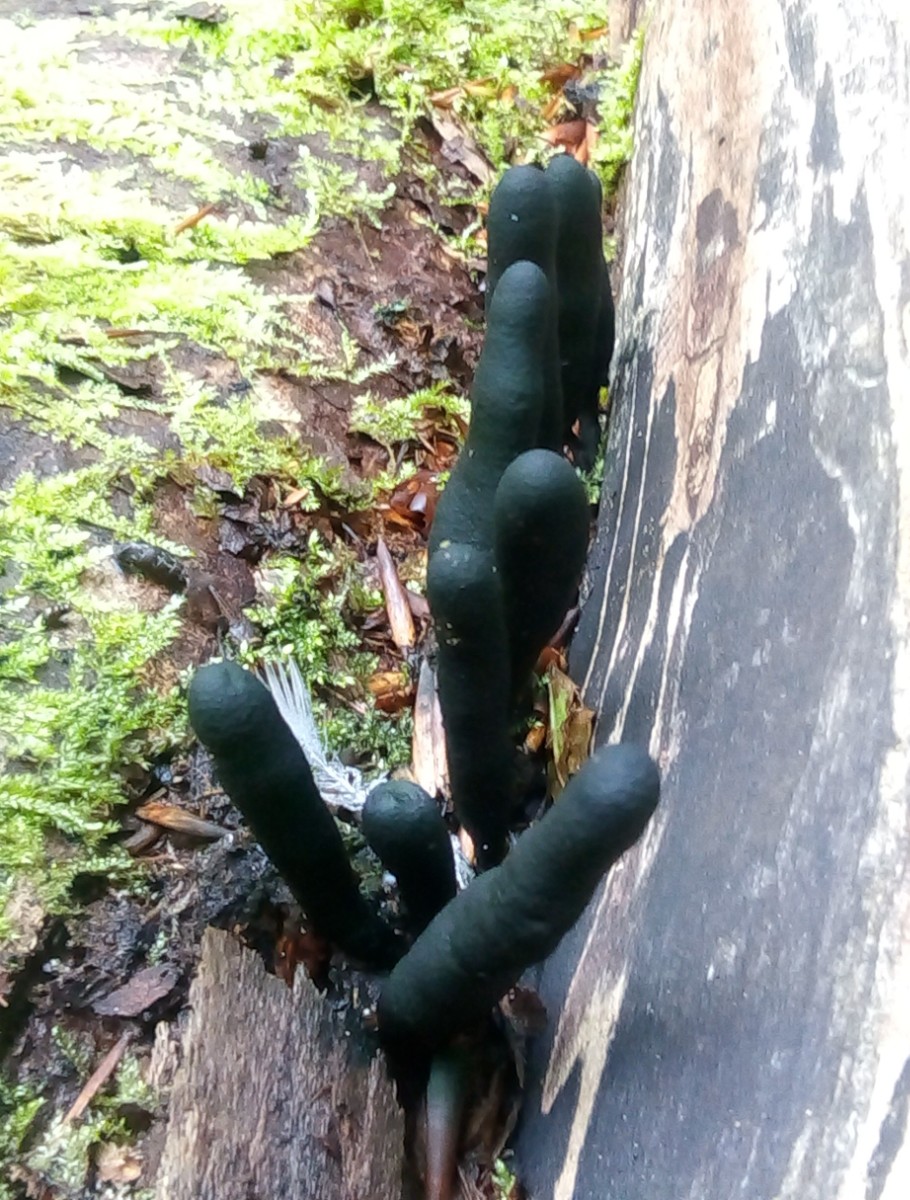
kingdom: Fungi
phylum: Ascomycota
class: Sordariomycetes
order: Xylariales
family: Xylariaceae
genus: Xylaria
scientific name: Xylaria longipes
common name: slank stødsvamp
